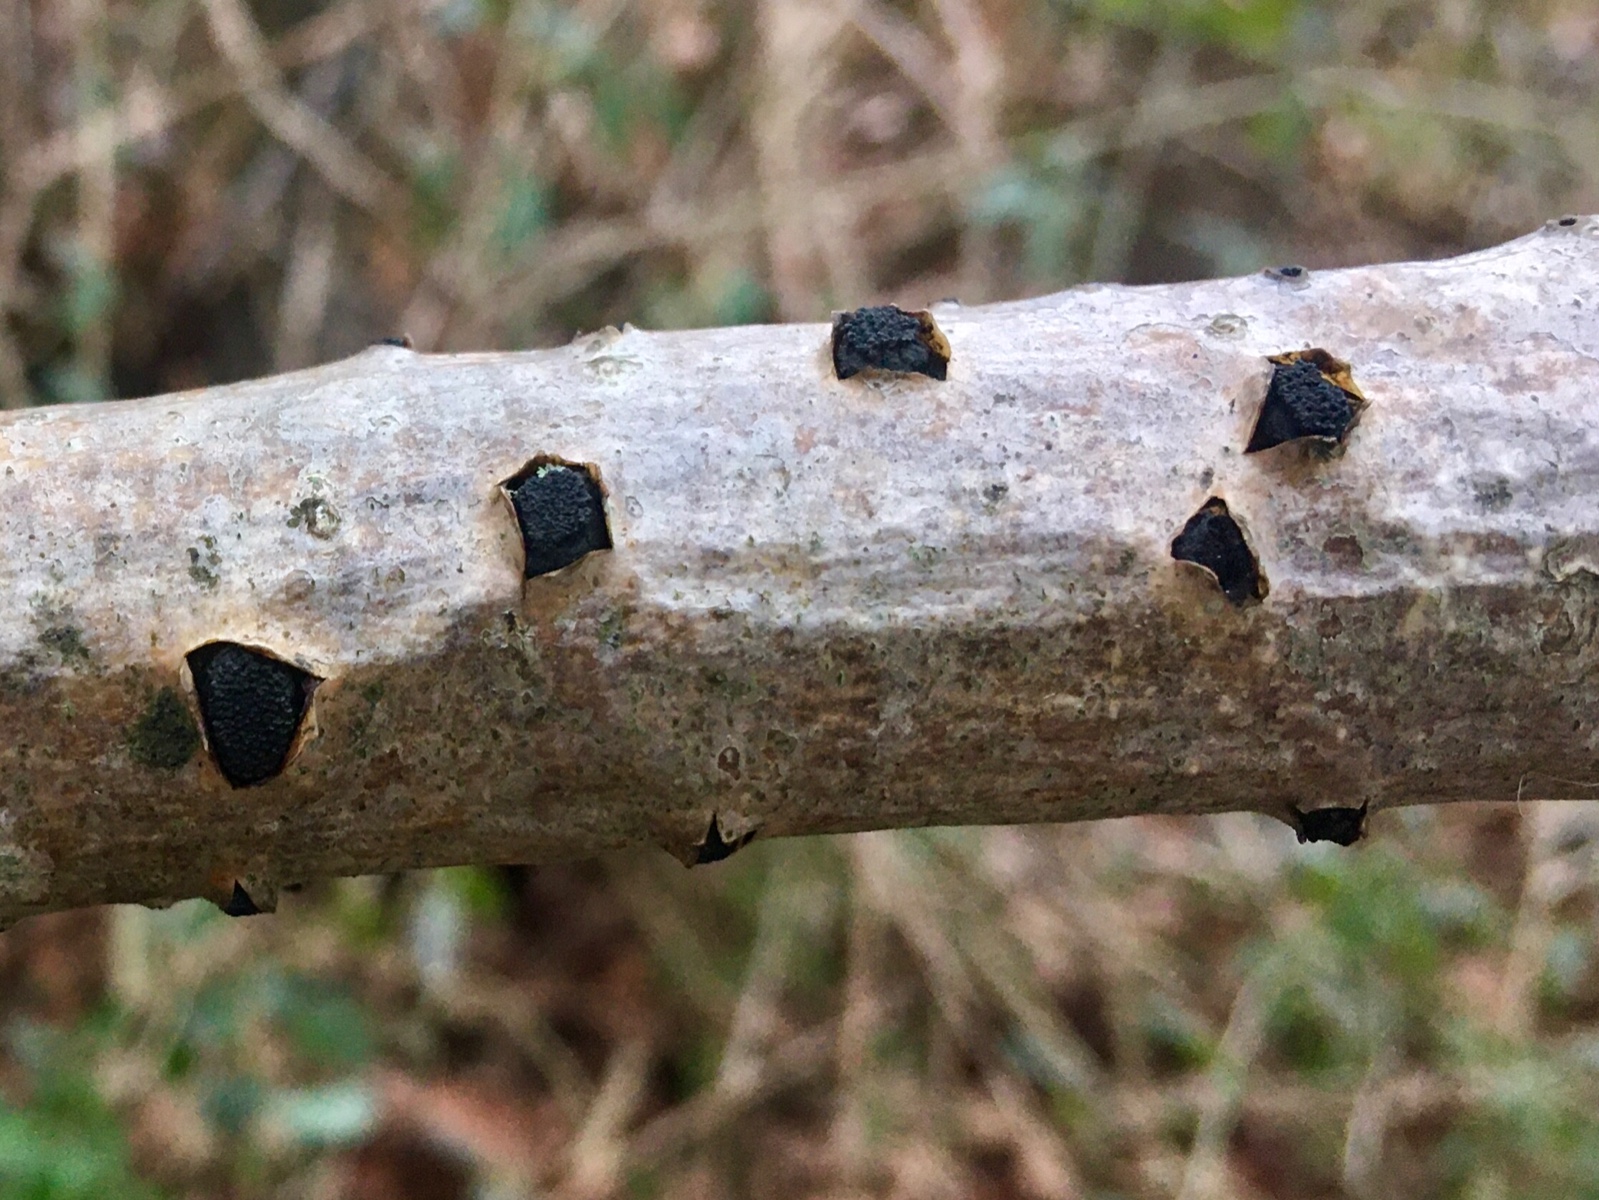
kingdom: Fungi
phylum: Ascomycota
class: Sordariomycetes
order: Xylariales
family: Diatrypaceae
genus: Eutypella
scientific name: Eutypella sorbi
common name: rønne-kulskorpe
